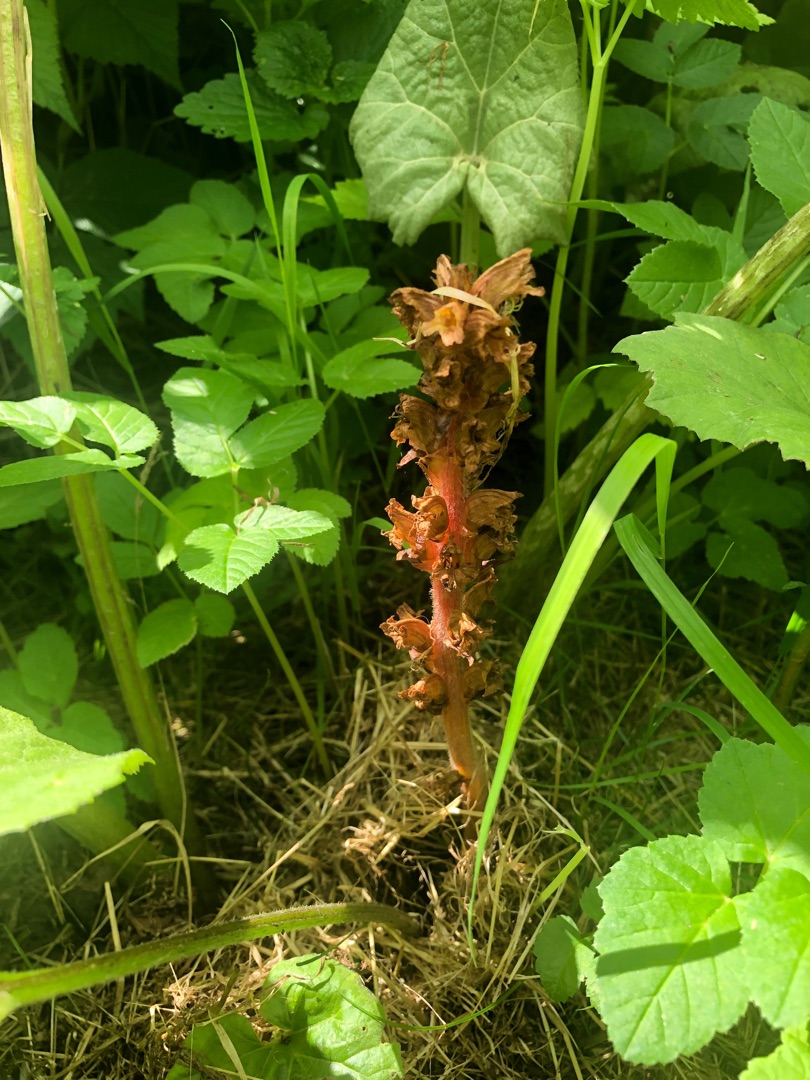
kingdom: Plantae
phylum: Tracheophyta
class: Magnoliopsida
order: Lamiales
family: Orobanchaceae
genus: Orobanche
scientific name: Orobanche flava
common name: Gul gyvelkvæler
